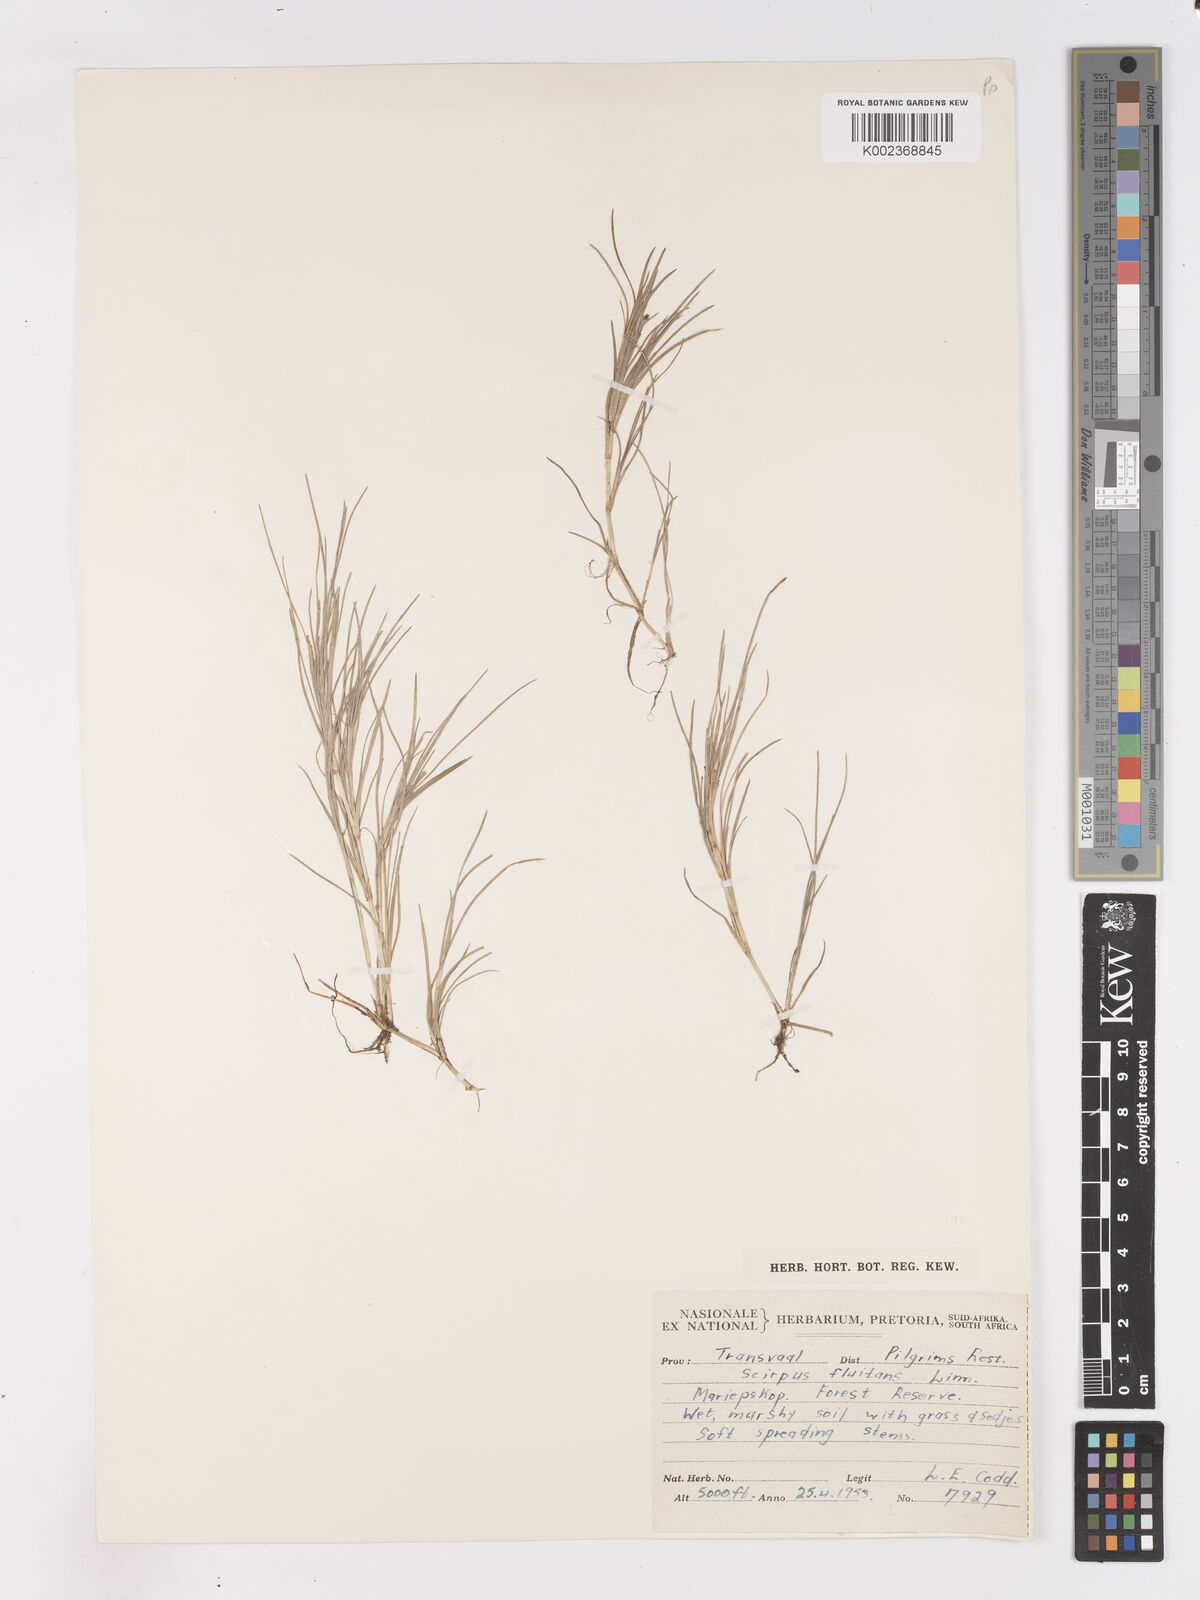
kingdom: Plantae
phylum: Tracheophyta
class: Liliopsida
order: Poales
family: Cyperaceae
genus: Isolepis
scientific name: Isolepis fluitans
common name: Floating club-rush
